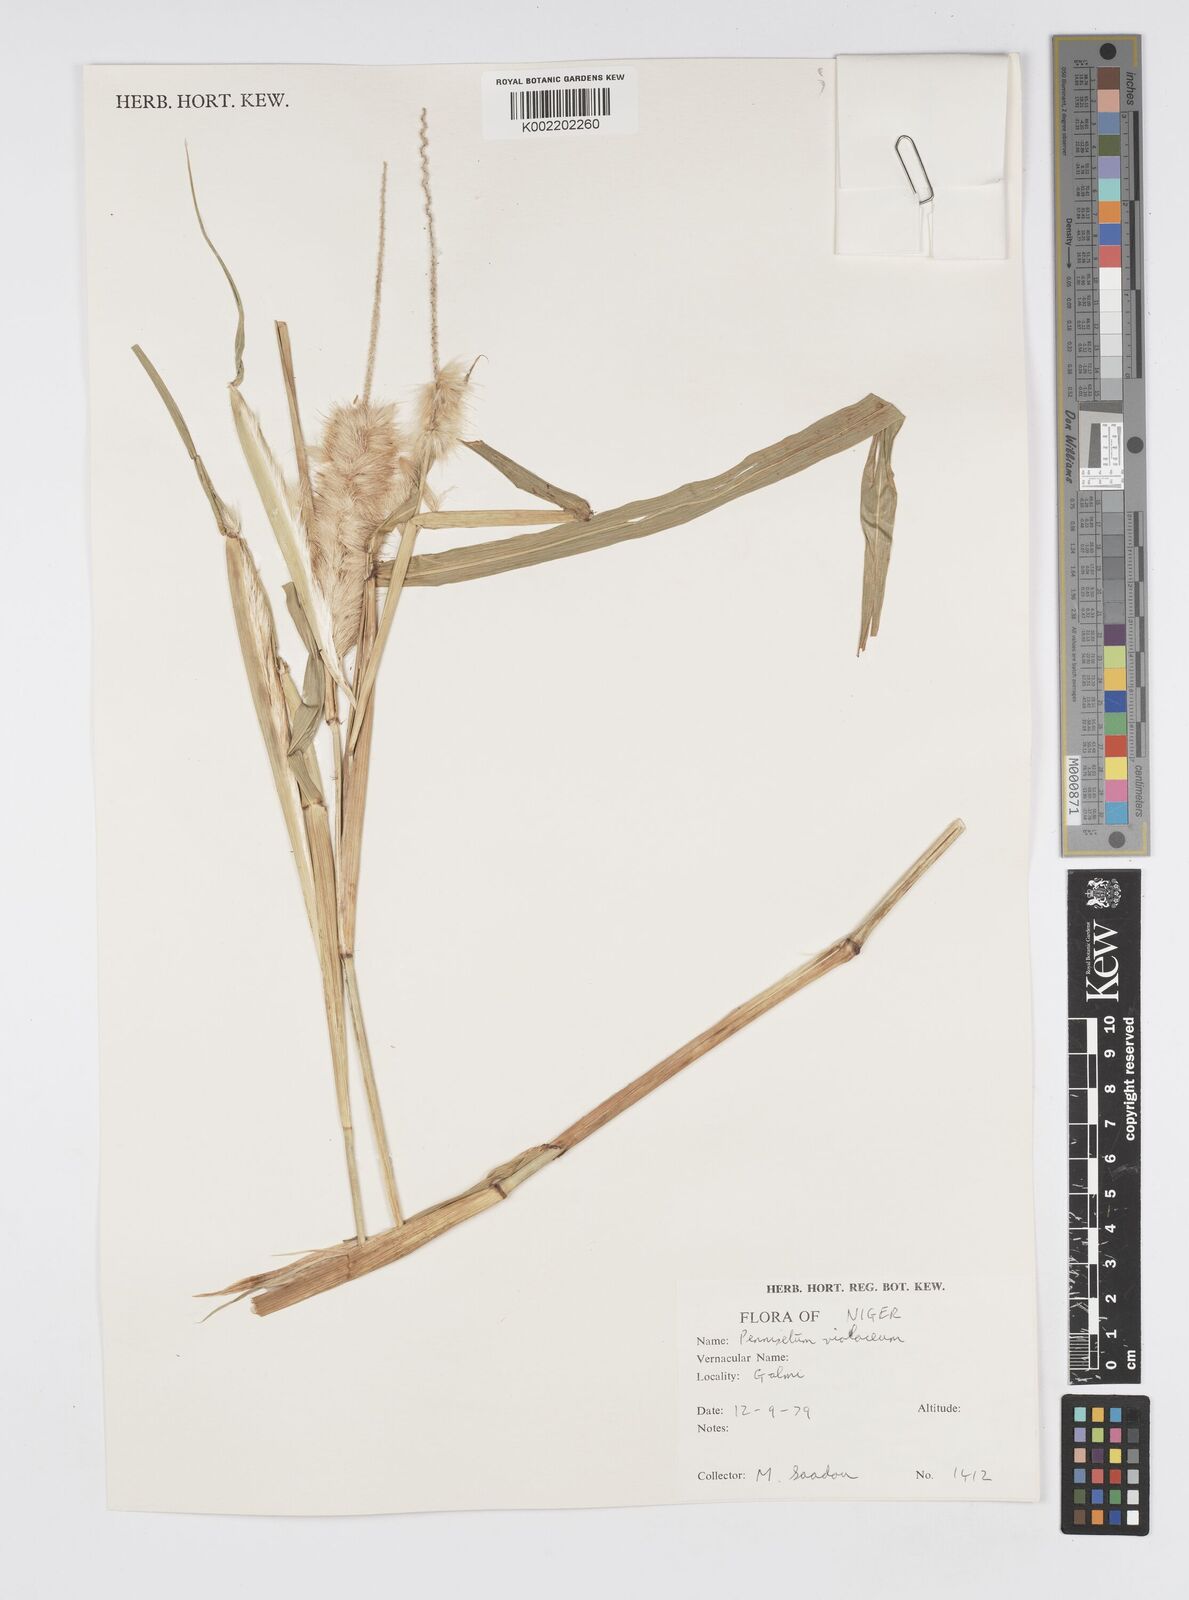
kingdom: Plantae
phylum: Tracheophyta
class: Liliopsida
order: Poales
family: Poaceae
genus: Cenchrus
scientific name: Cenchrus violaceus
